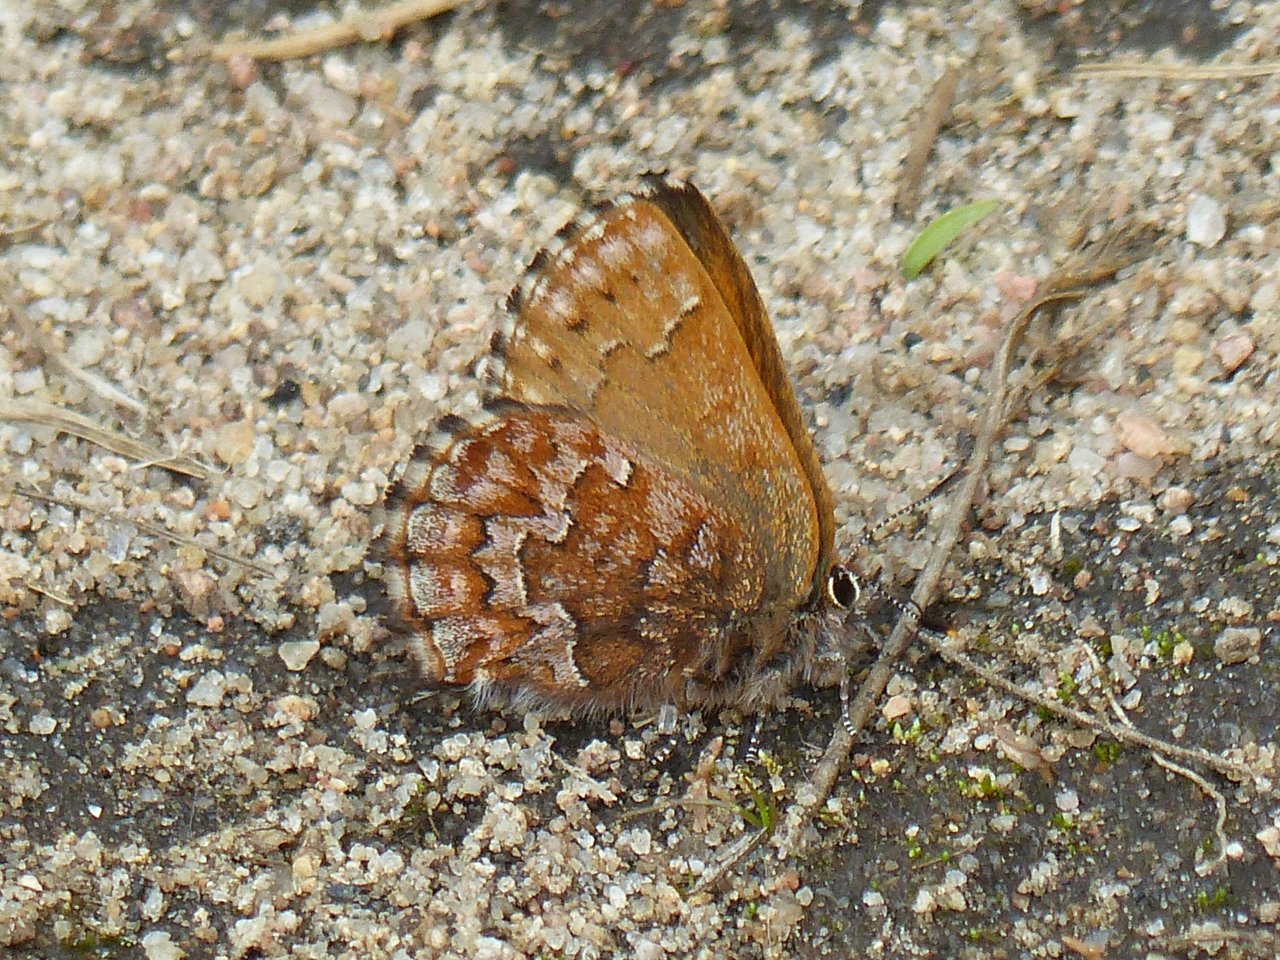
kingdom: Animalia
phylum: Arthropoda
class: Insecta
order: Lepidoptera
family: Lycaenidae
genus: Incisalia
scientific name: Incisalia niphon
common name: Eastern Pine Elfin
